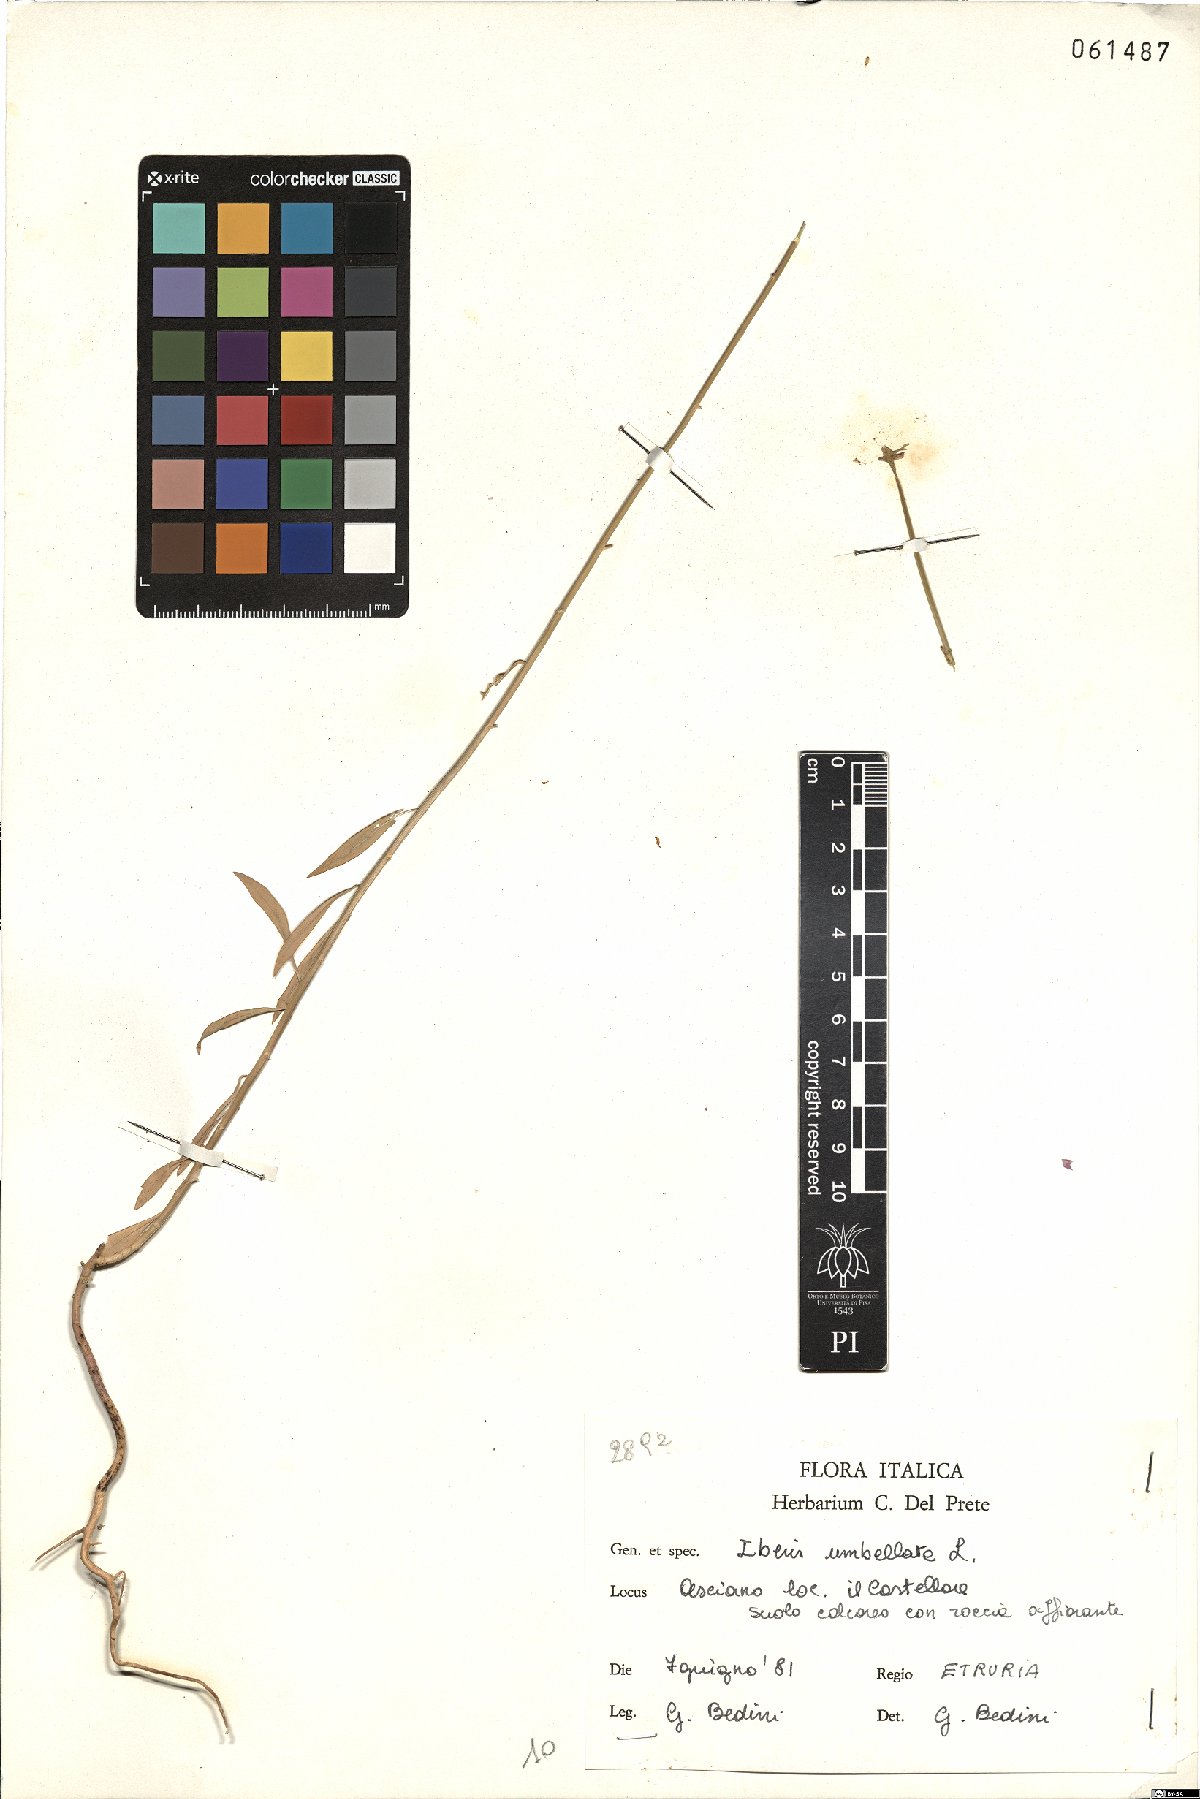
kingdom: Plantae
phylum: Tracheophyta
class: Magnoliopsida
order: Brassicales
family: Brassicaceae
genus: Iberis
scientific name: Iberis umbellata
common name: Globe candytuft
